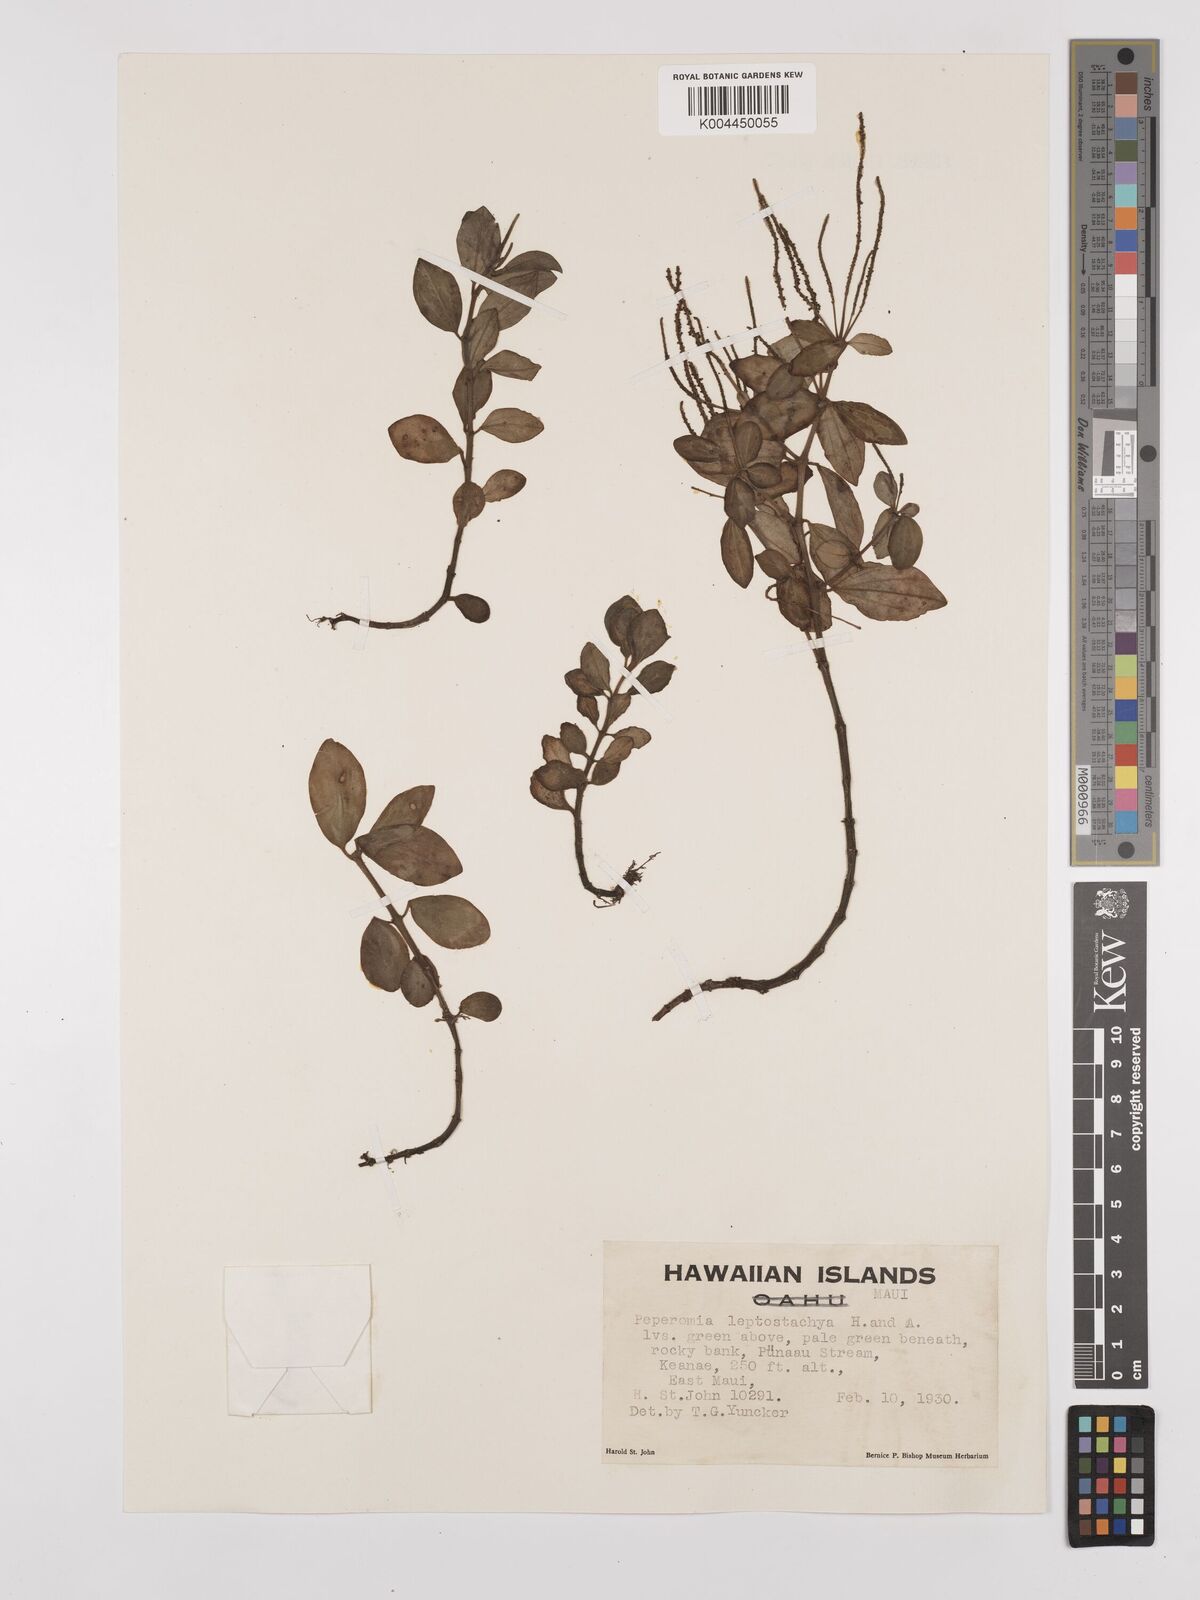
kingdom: Plantae
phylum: Tracheophyta
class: Magnoliopsida
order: Piperales
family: Piperaceae
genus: Peperomia
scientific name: Peperomia leptostachya
